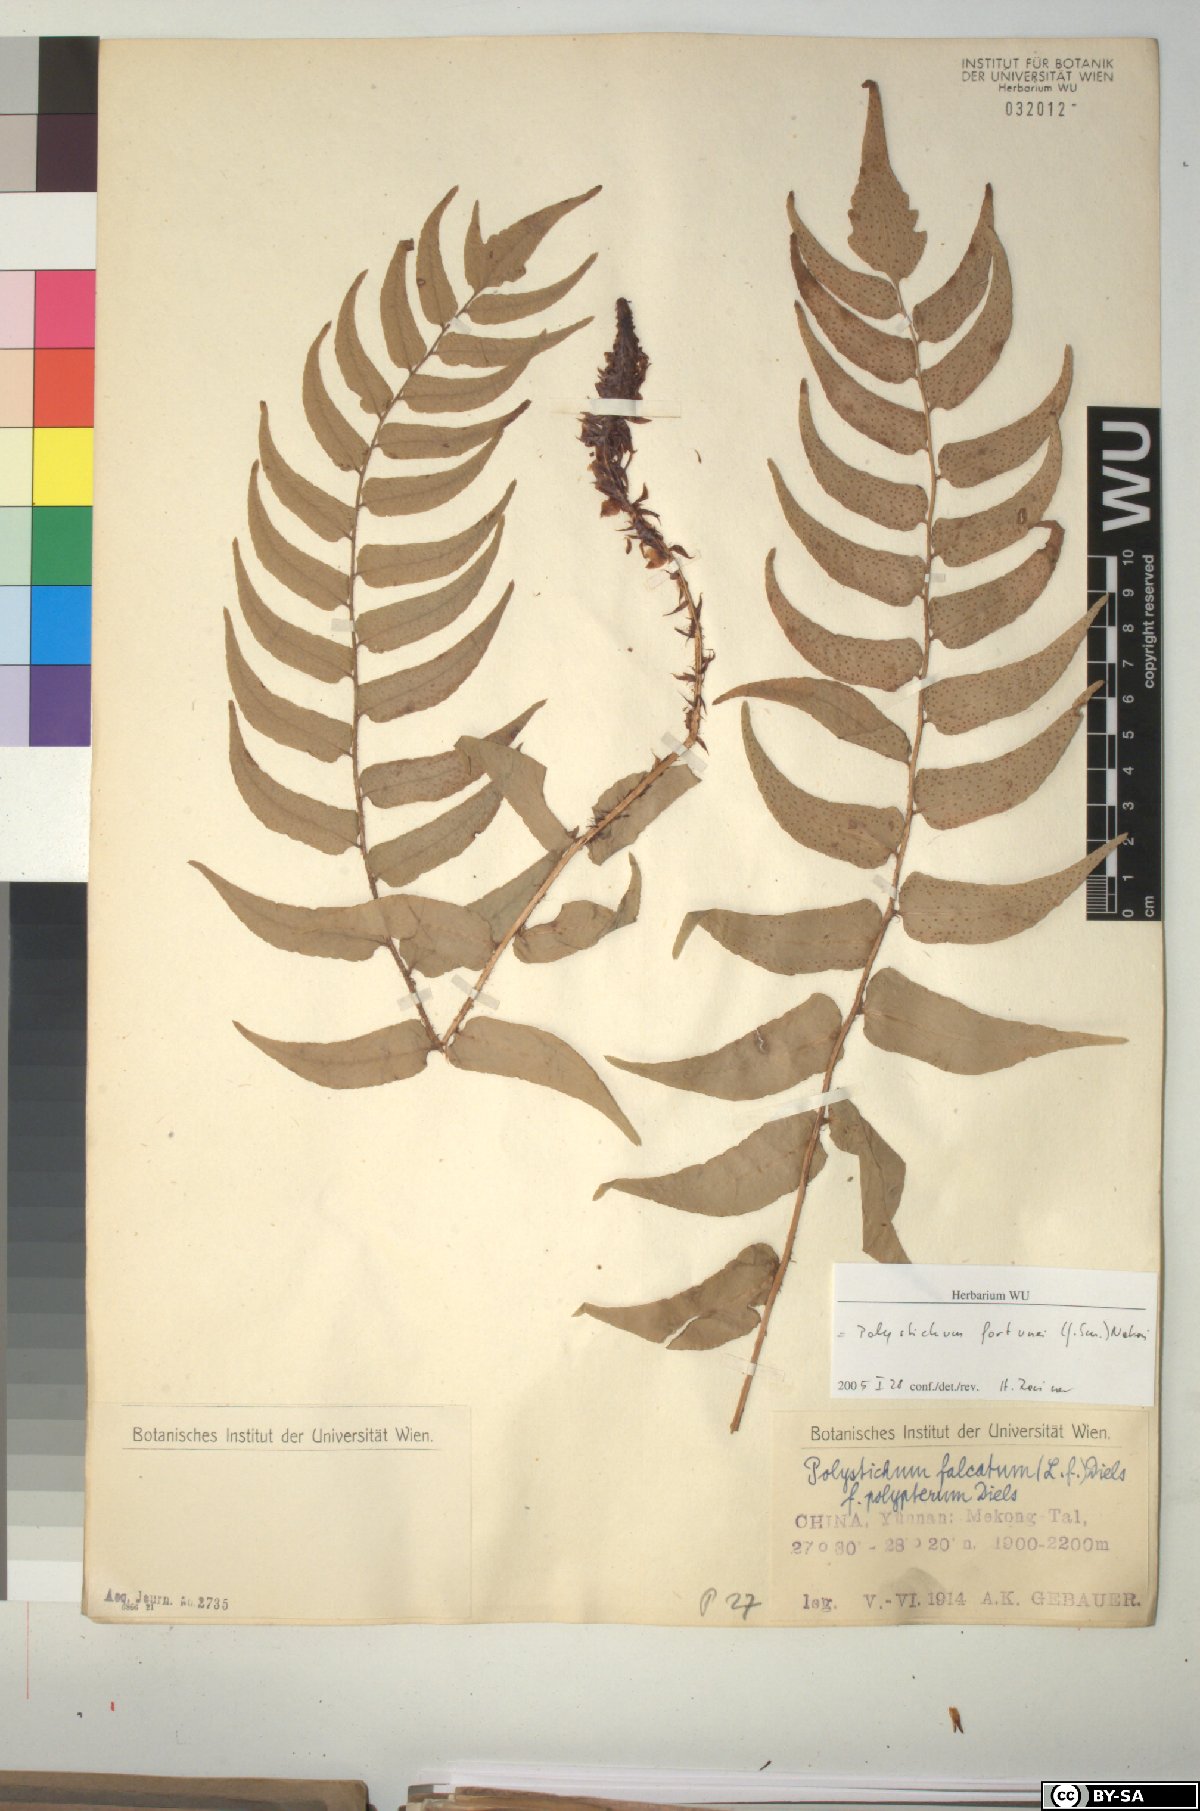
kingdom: Plantae
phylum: Tracheophyta
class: Polypodiopsida
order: Polypodiales
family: Dryopteridaceae
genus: Cyrtomium
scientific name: Cyrtomium fortunei
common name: Asian netvein hollyfern
